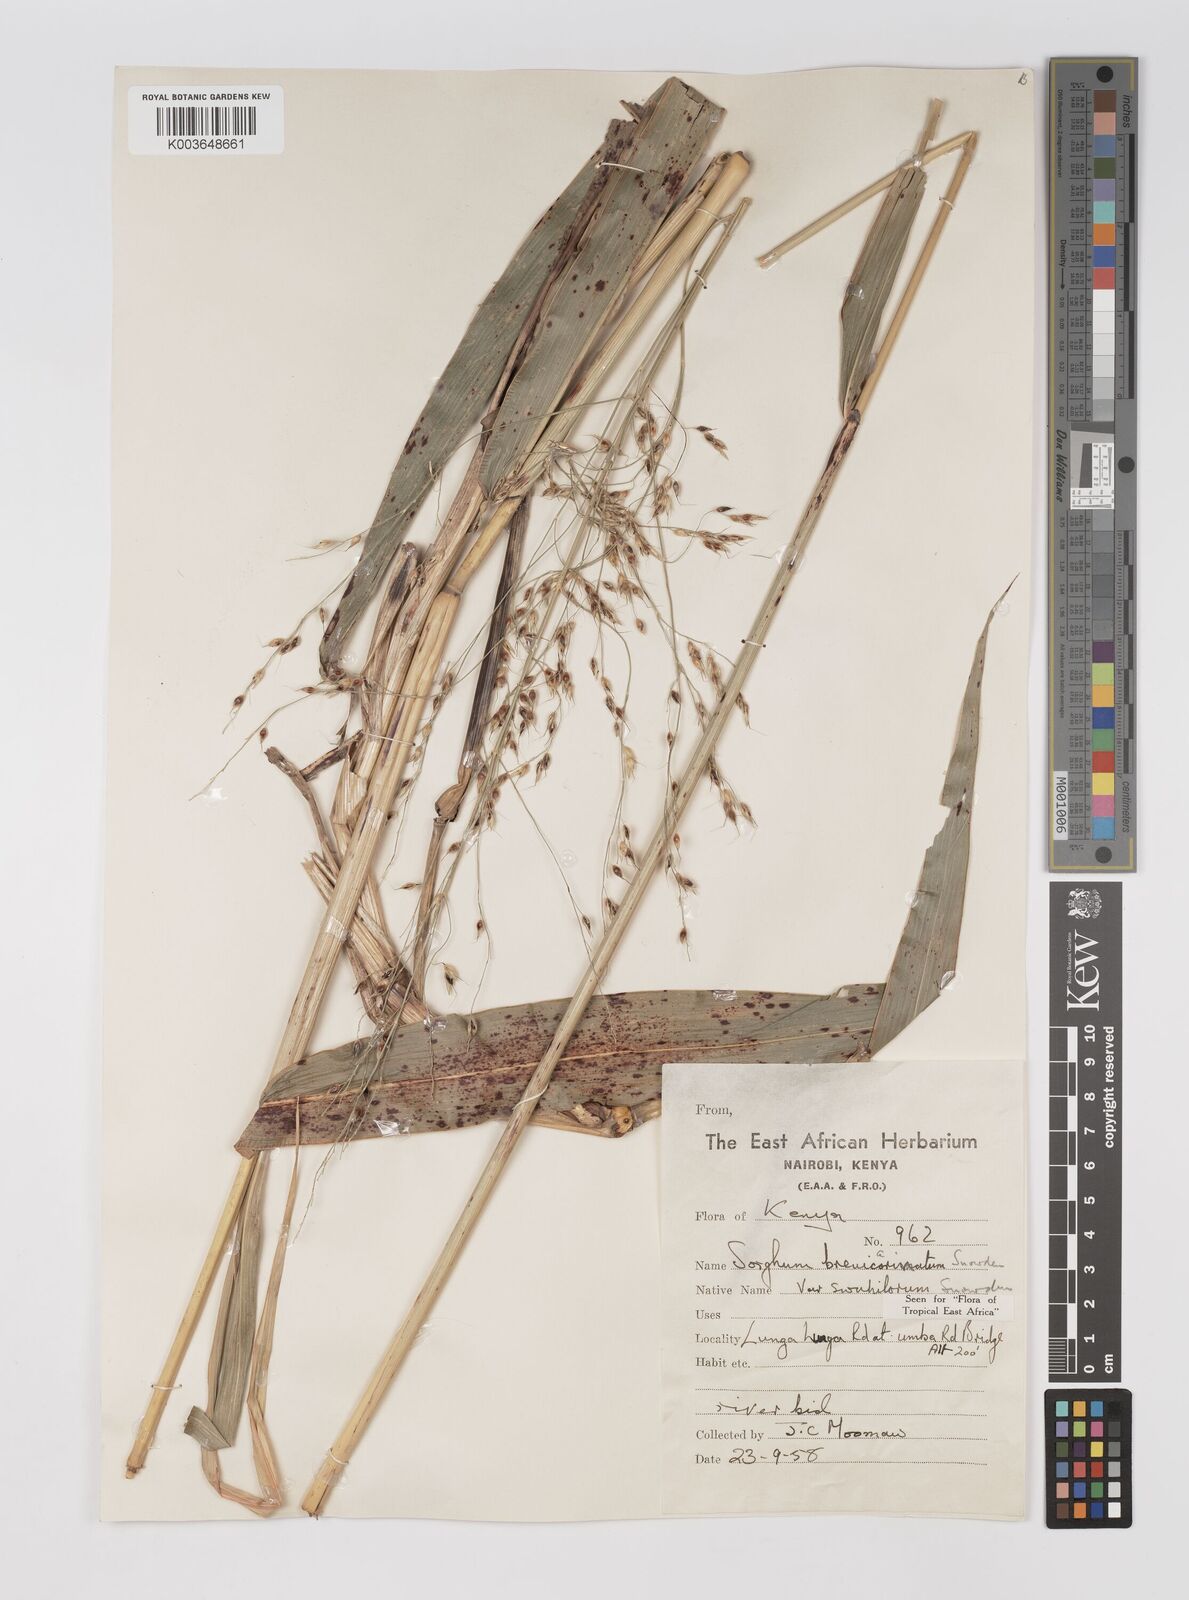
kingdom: Plantae
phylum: Tracheophyta
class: Liliopsida
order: Poales
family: Poaceae
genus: Sorghum
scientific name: Sorghum arundinaceum
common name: Sorghum
